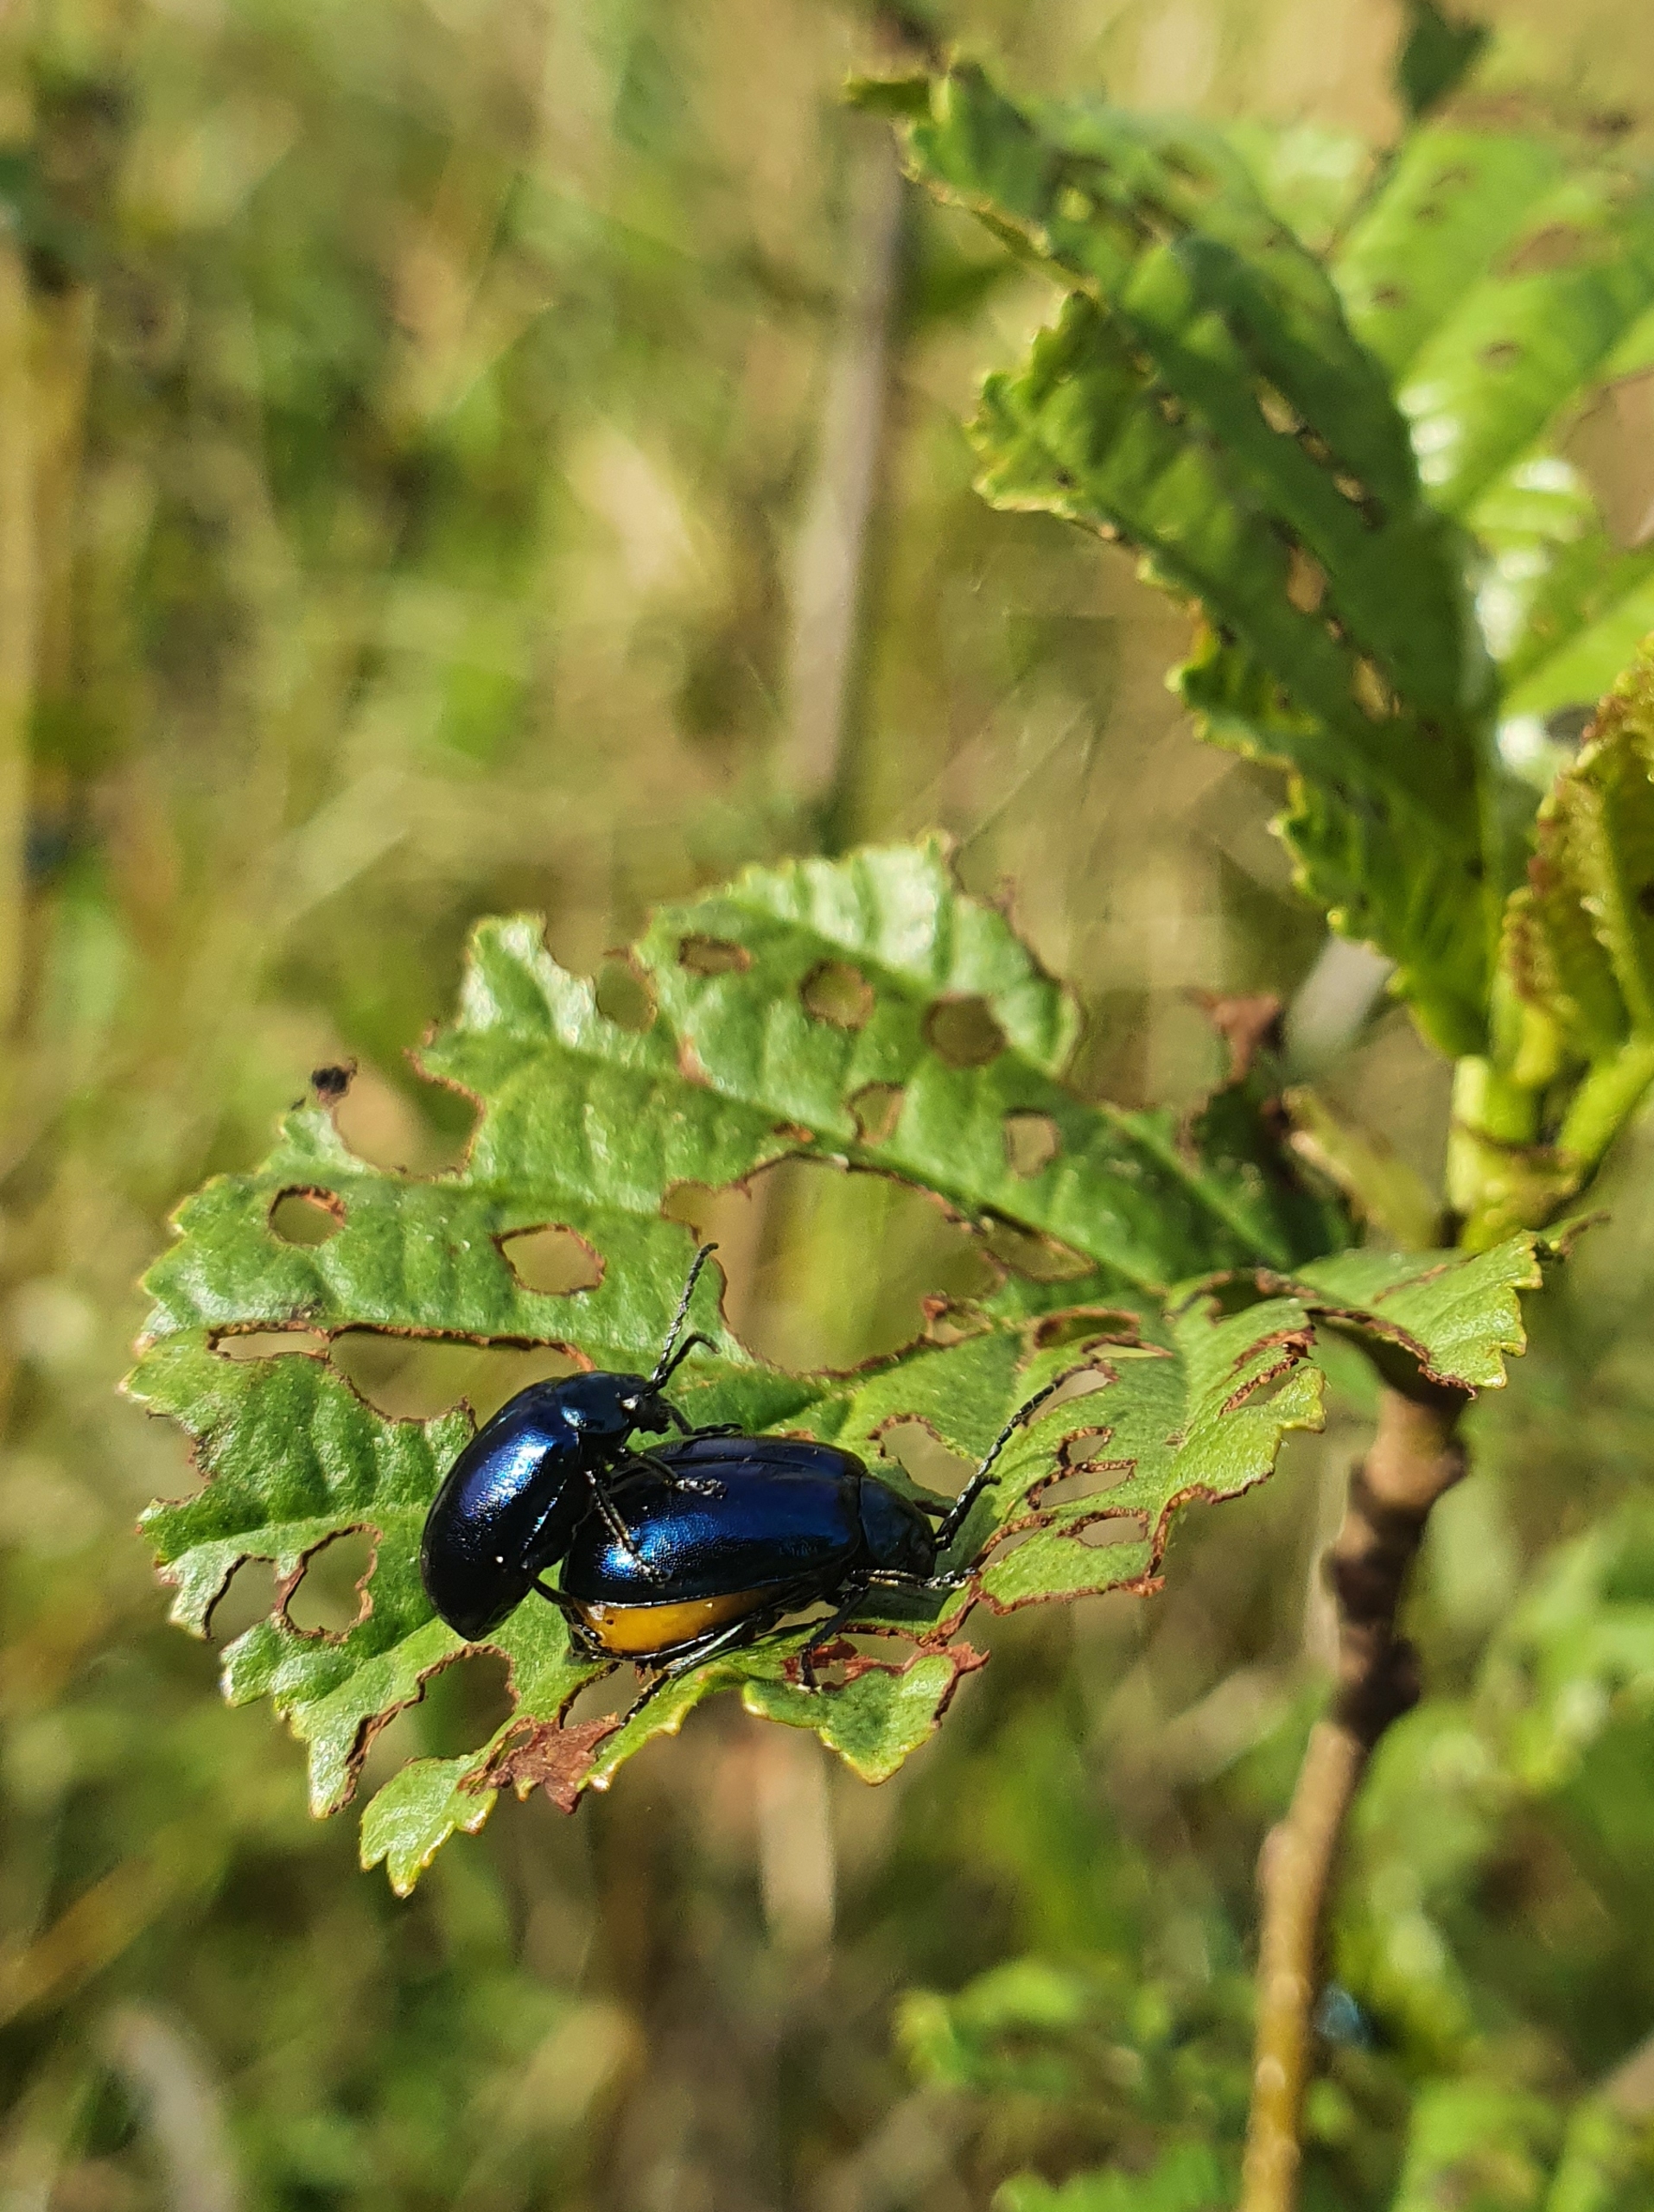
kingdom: Animalia
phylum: Arthropoda
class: Insecta
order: Coleoptera
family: Chrysomelidae
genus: Agelastica
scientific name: Agelastica alni
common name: Ellebladbille
